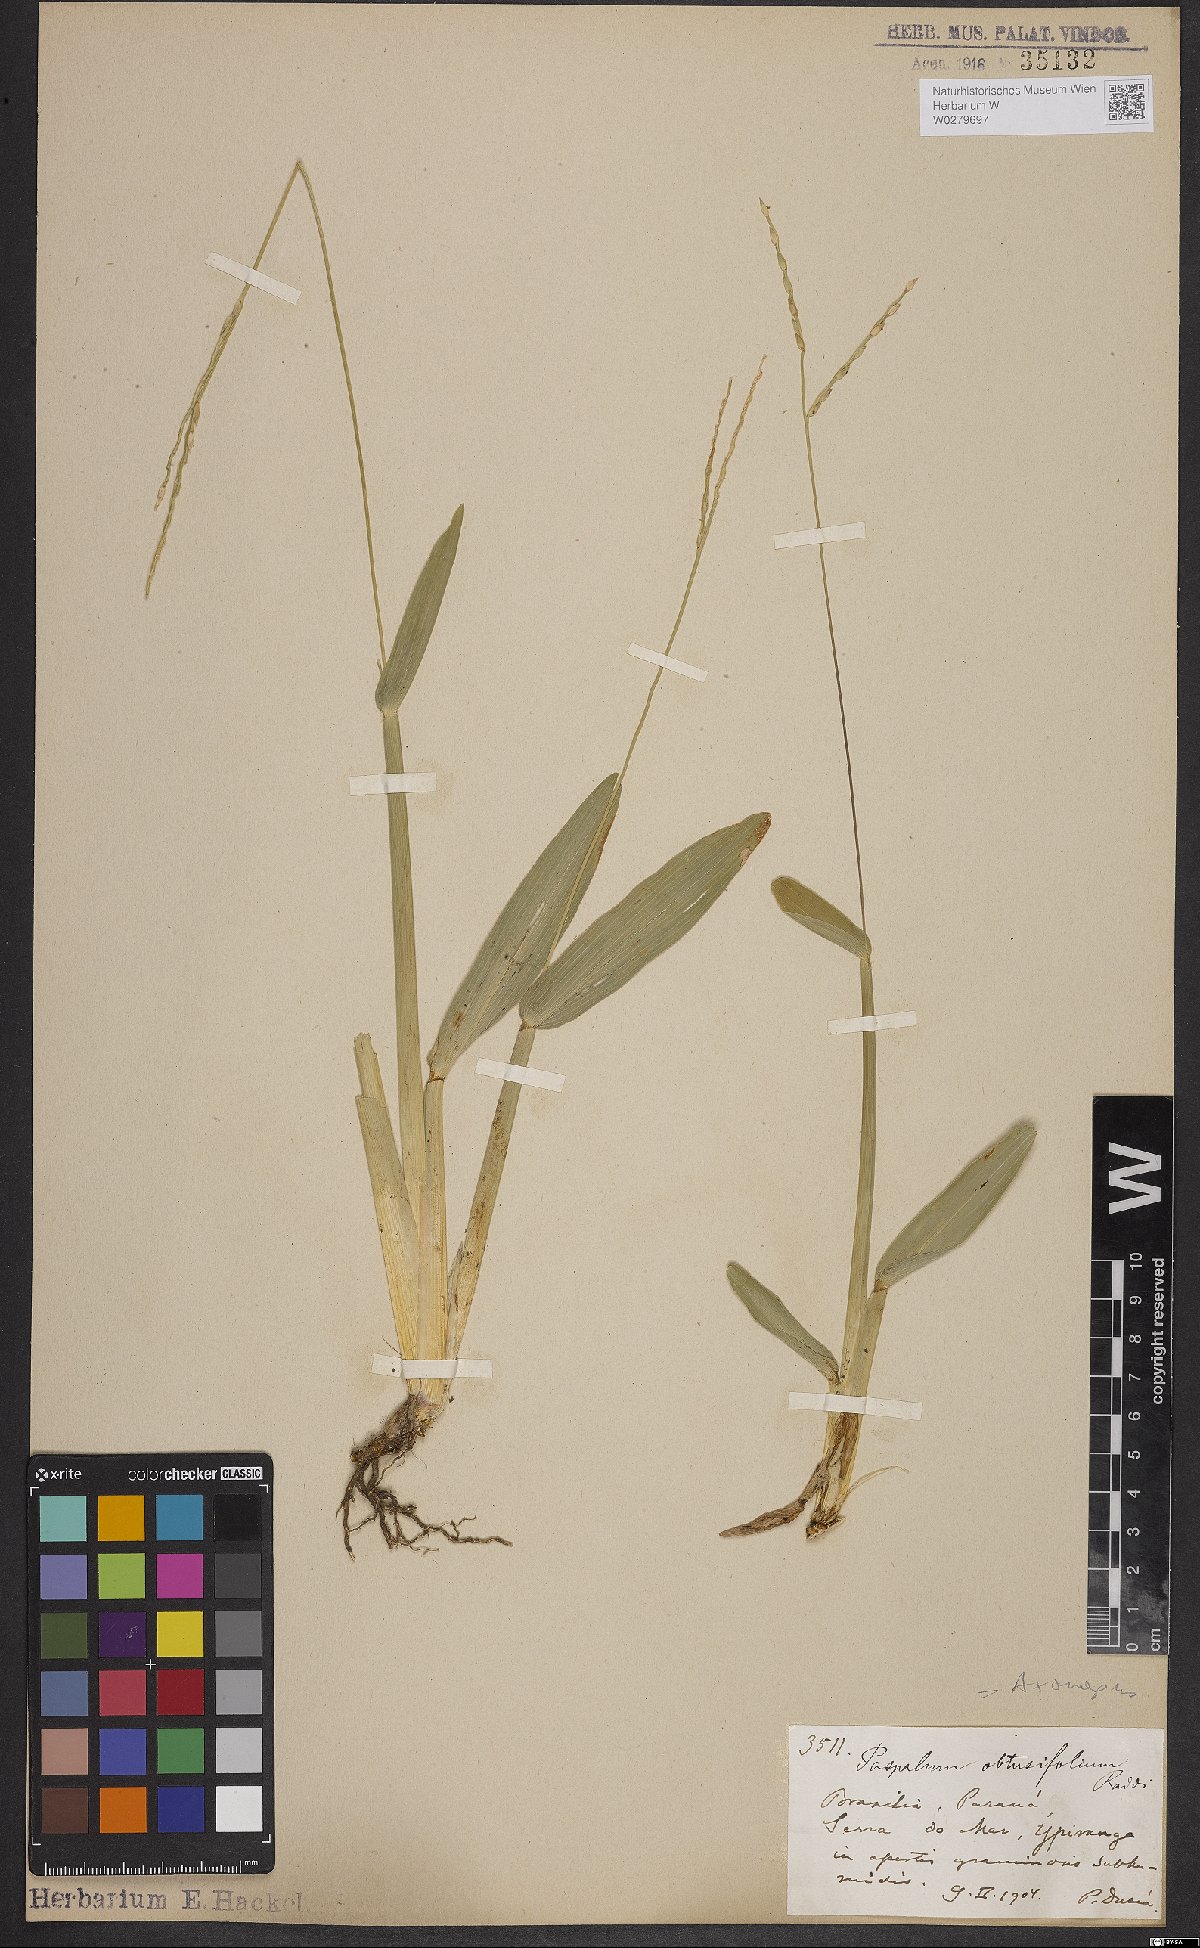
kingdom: Plantae
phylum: Tracheophyta
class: Liliopsida
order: Poales
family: Poaceae
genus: Axonopus
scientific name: Axonopus furcatus
